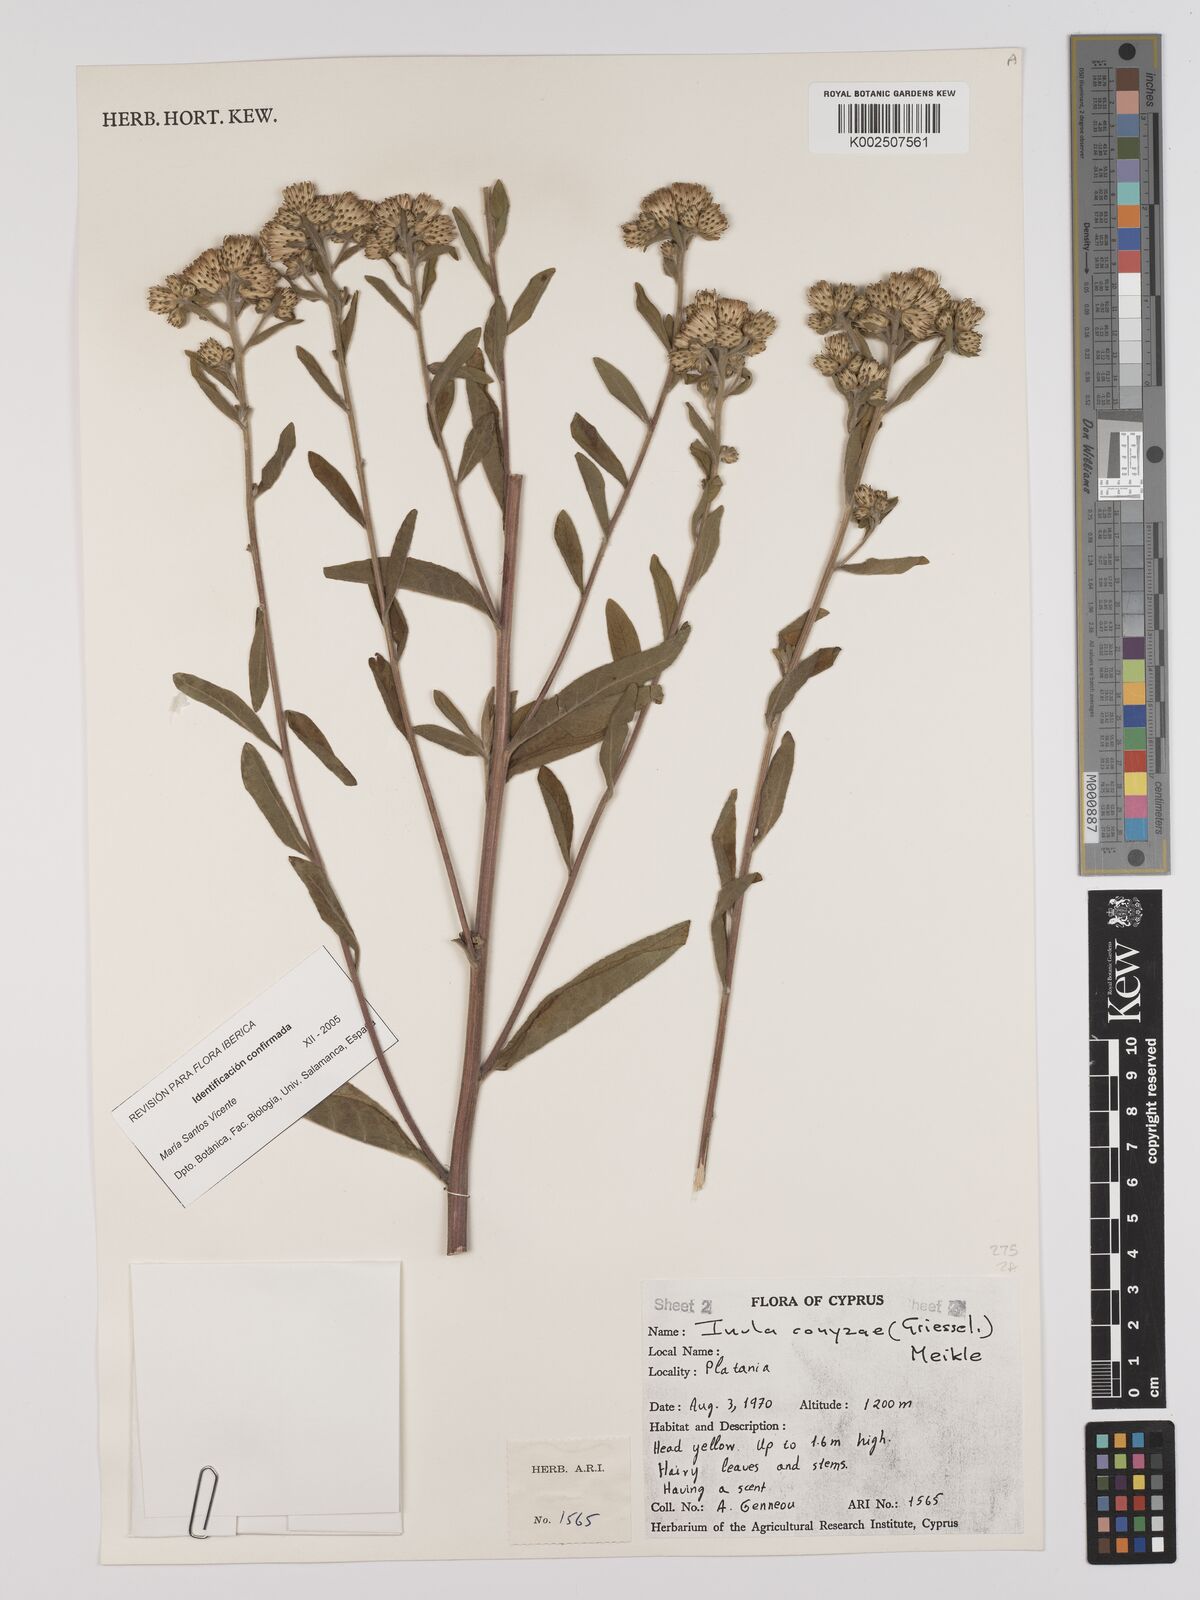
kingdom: Plantae
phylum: Tracheophyta
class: Magnoliopsida
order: Asterales
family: Asteraceae
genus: Pentanema
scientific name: Pentanema squarrosum
